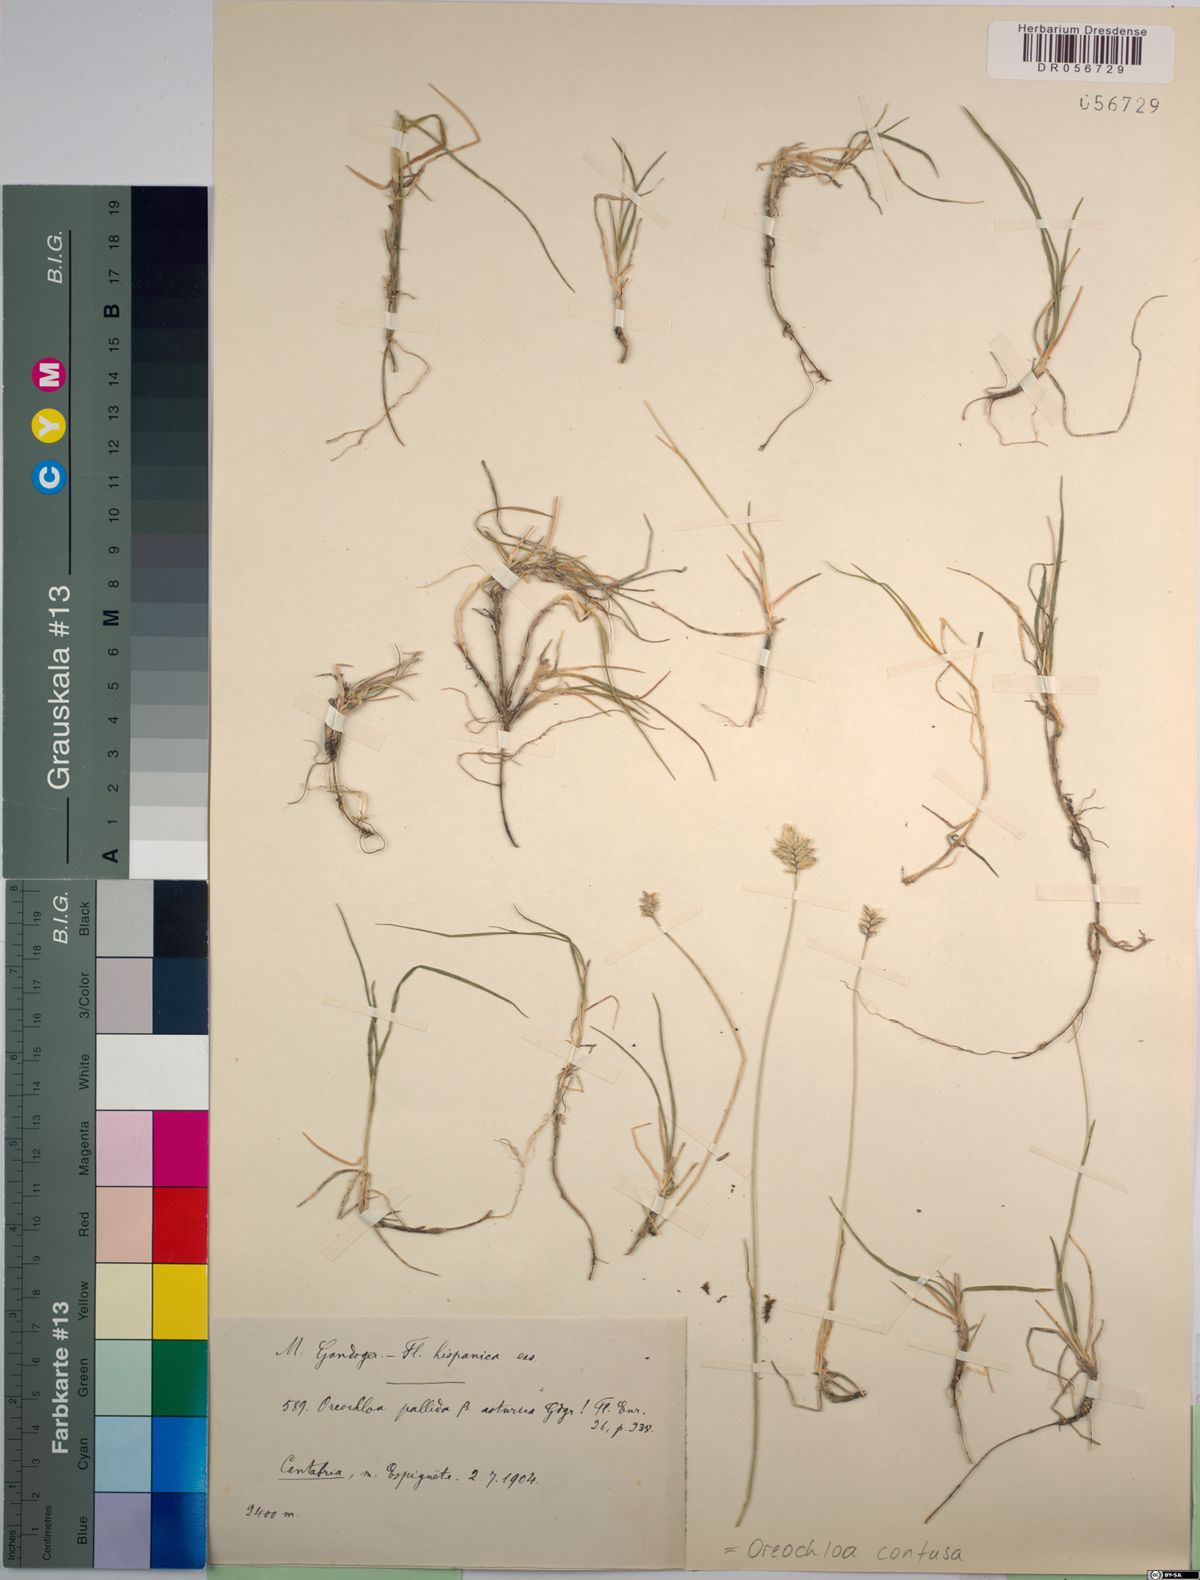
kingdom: Plantae
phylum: Tracheophyta
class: Liliopsida
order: Poales
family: Poaceae
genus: Oreochloa
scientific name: Oreochloa confusa
